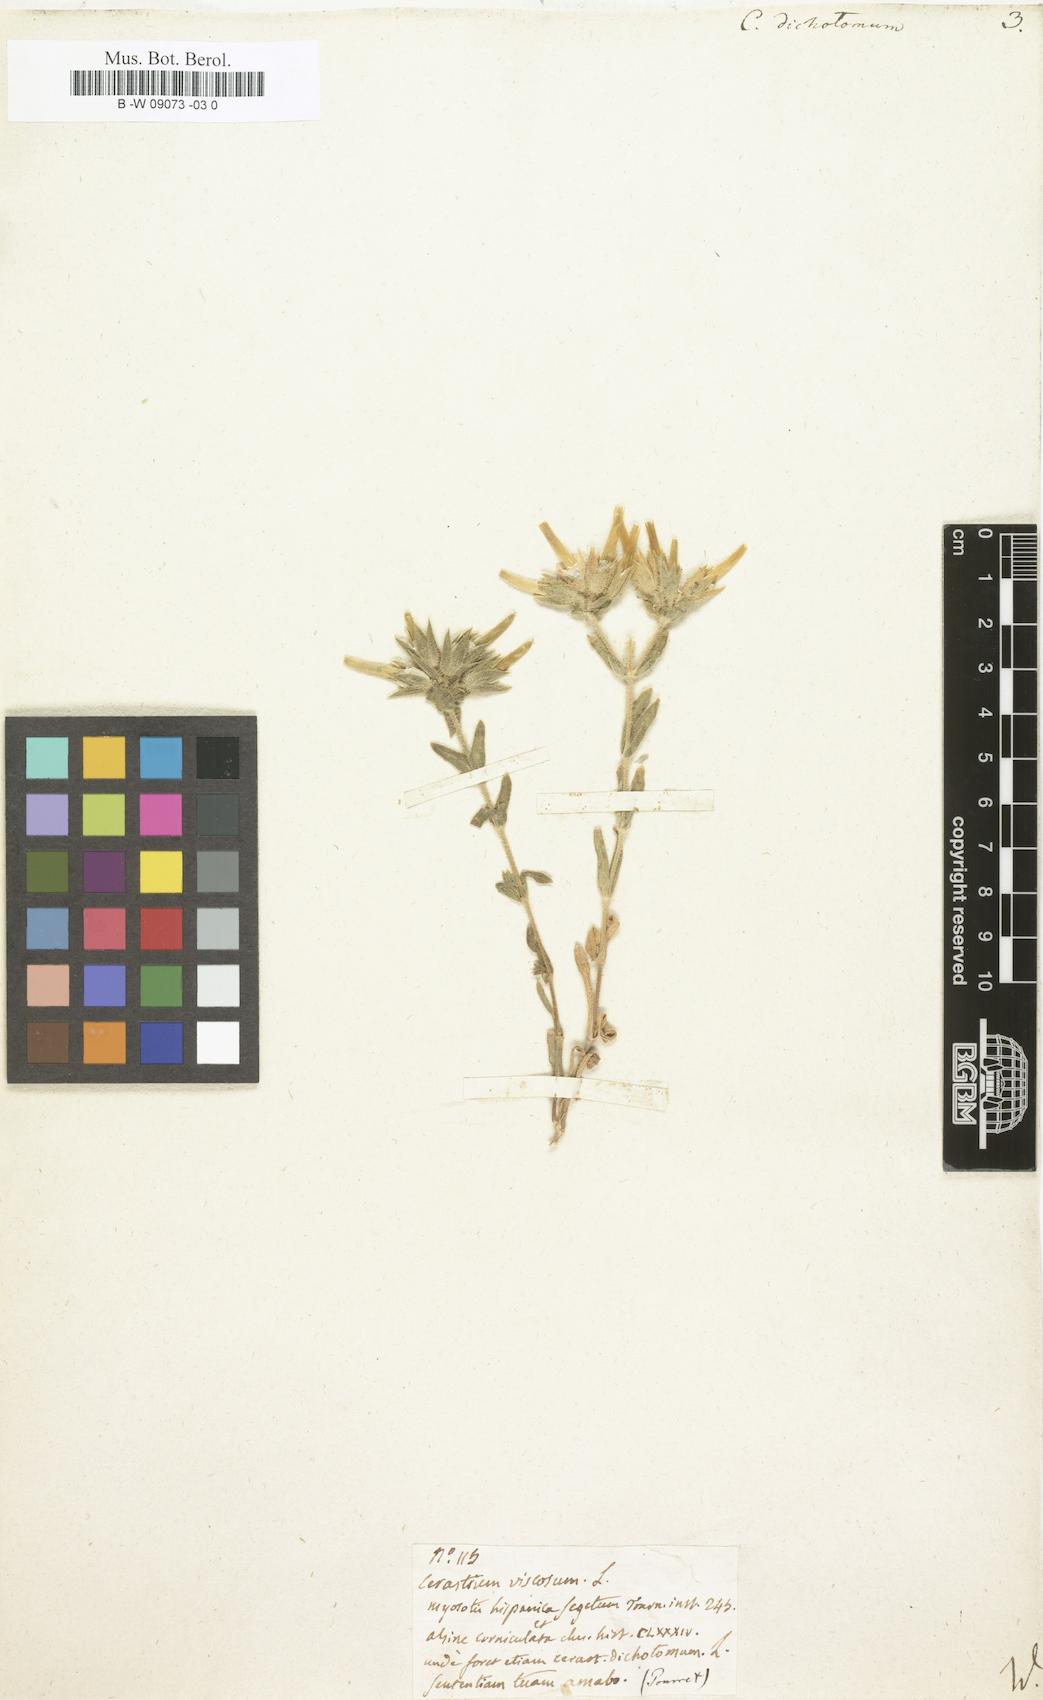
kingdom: Plantae
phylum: Tracheophyta
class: Magnoliopsida
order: Caryophyllales
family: Caryophyllaceae
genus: Cerastium
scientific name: Cerastium dichotomum
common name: Forked chickweed
